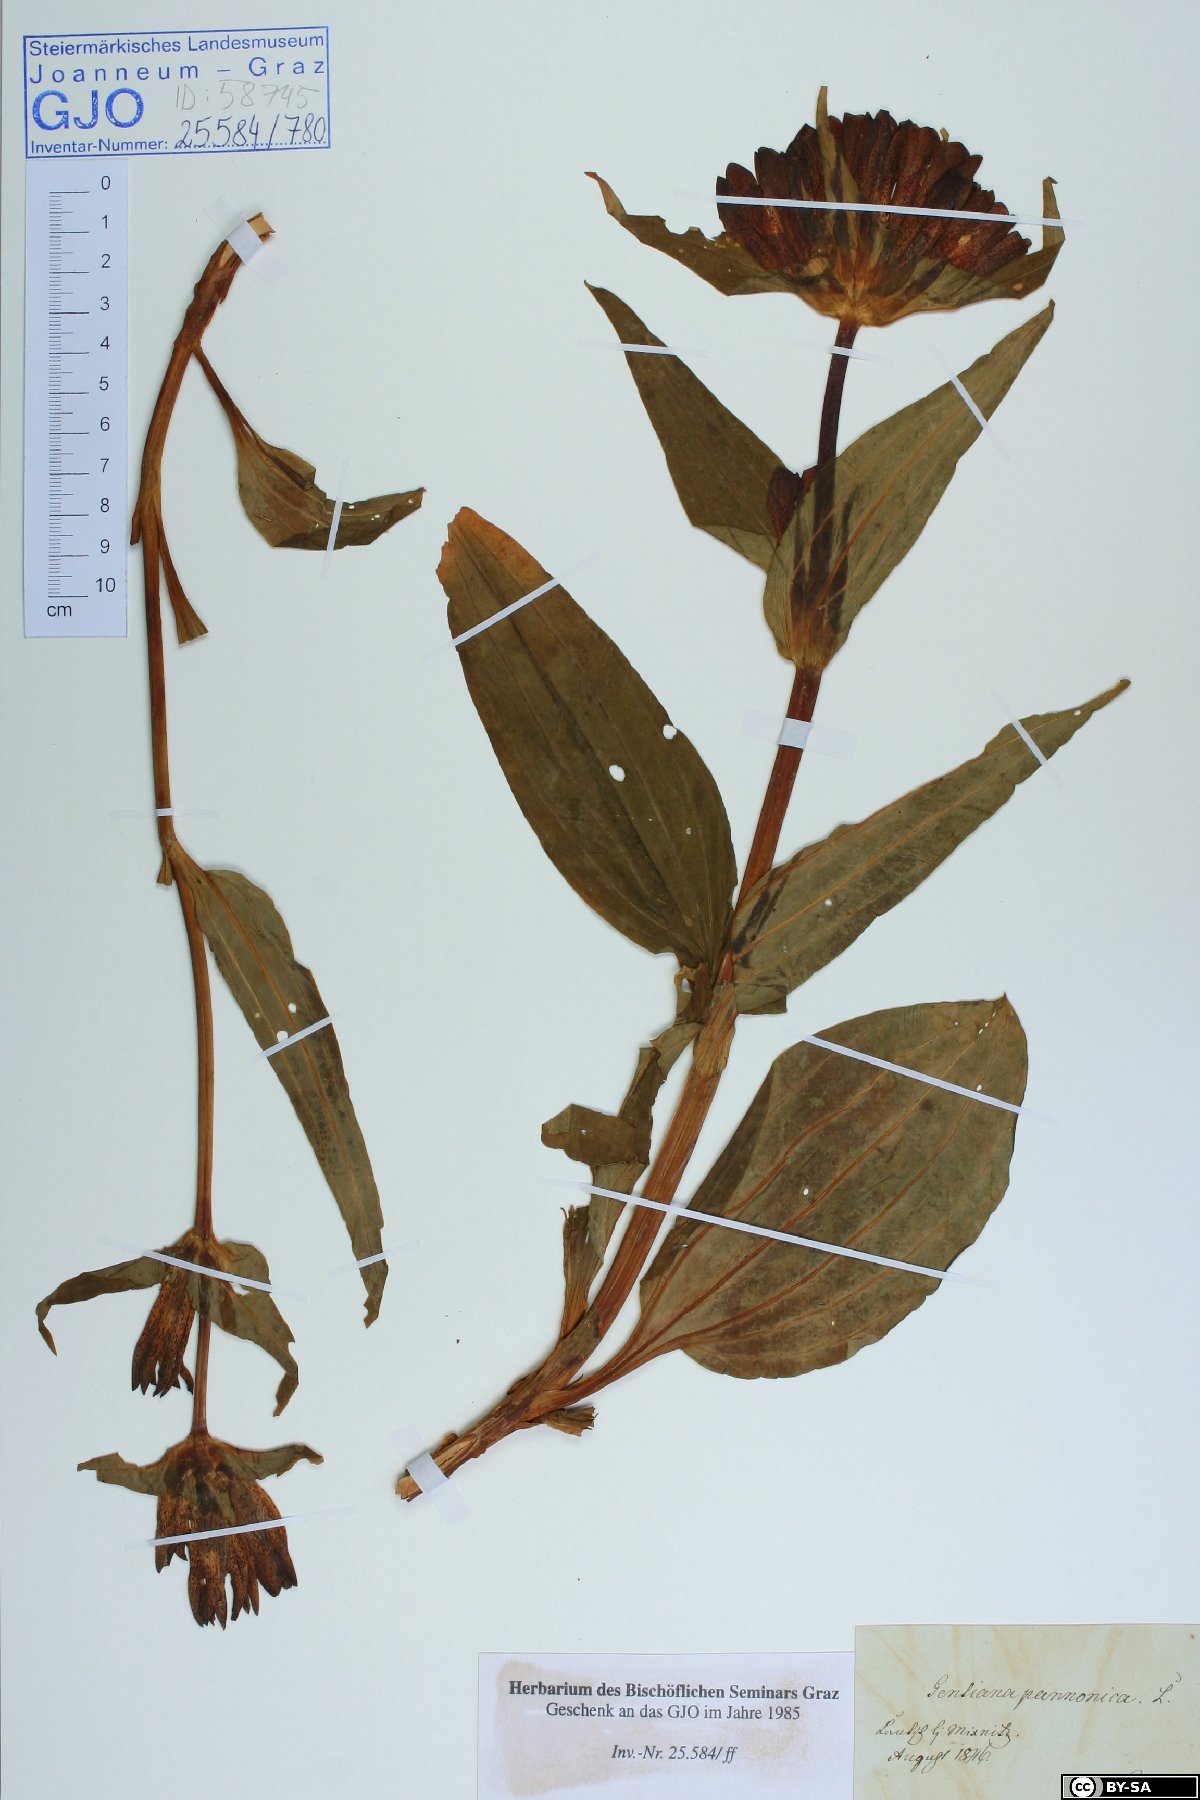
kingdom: Plantae
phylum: Tracheophyta
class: Magnoliopsida
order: Gentianales
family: Gentianaceae
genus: Gentiana
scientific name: Gentiana pannonica
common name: Hungarian gentian
